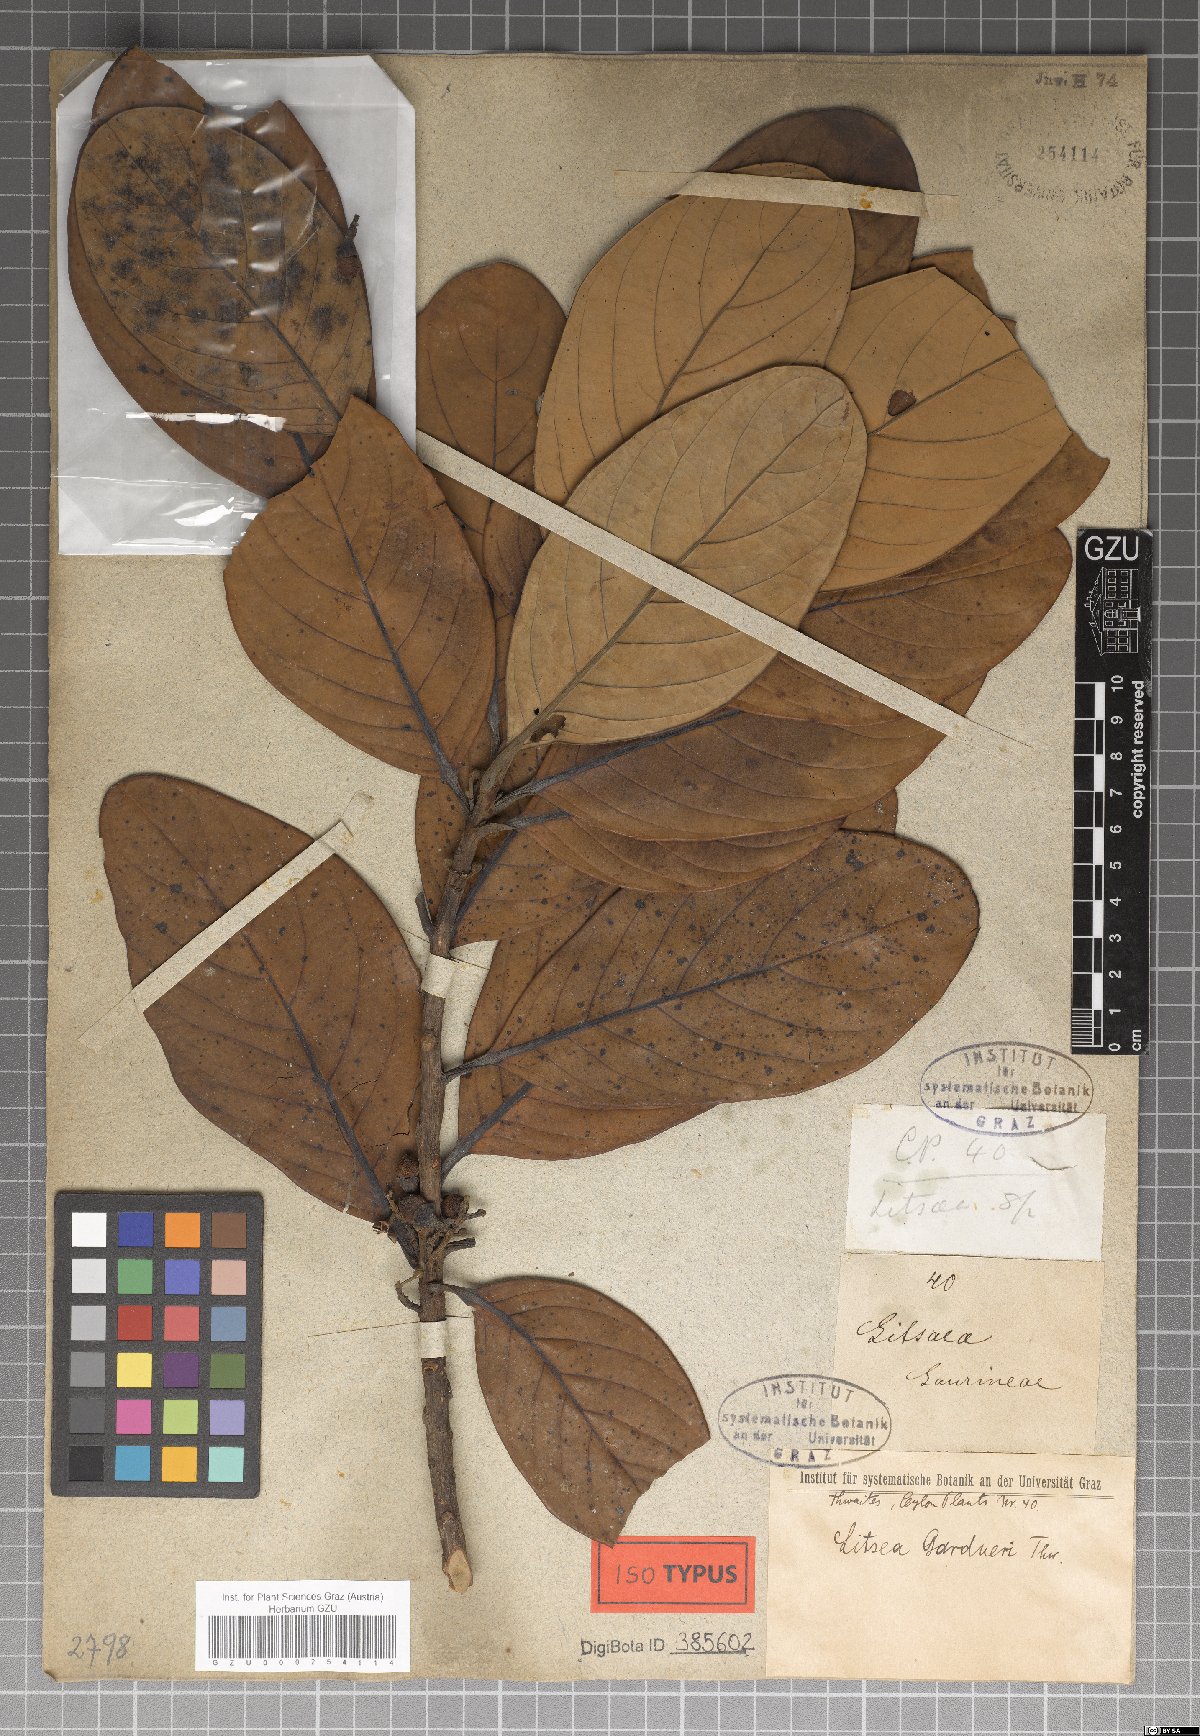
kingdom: Plantae
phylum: Tracheophyta
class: Magnoliopsida
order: Laurales
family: Lauraceae
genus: Litsea
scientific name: Litsea gardneri
